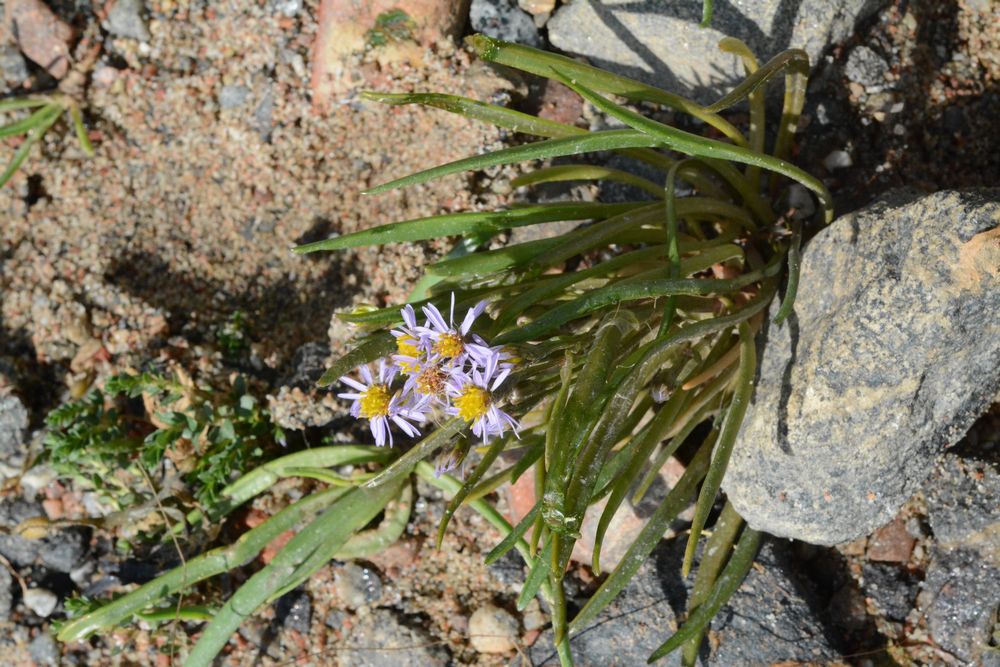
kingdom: Plantae
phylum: Tracheophyta
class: Magnoliopsida
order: Asterales
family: Asteraceae
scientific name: Asteraceae
